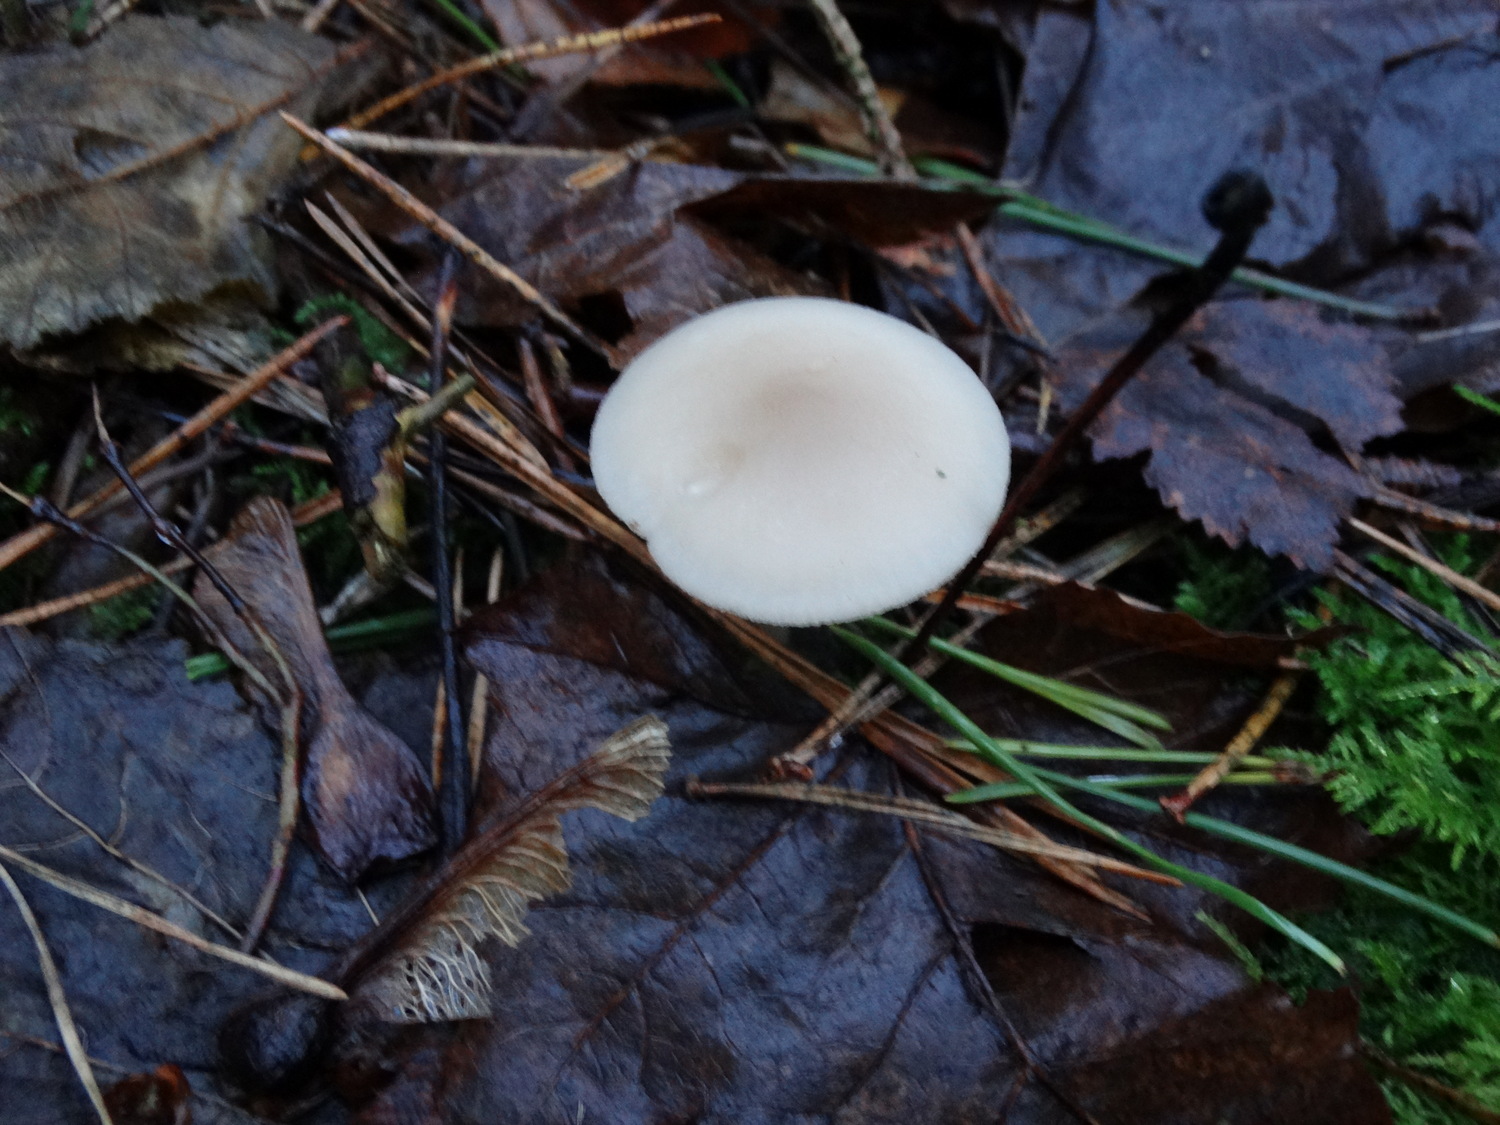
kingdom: Fungi
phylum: Basidiomycota
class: Agaricomycetes
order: Agaricales
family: Tricholomataceae
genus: Clitocybe
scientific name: Clitocybe fragrans
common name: vellugtende tragthat
